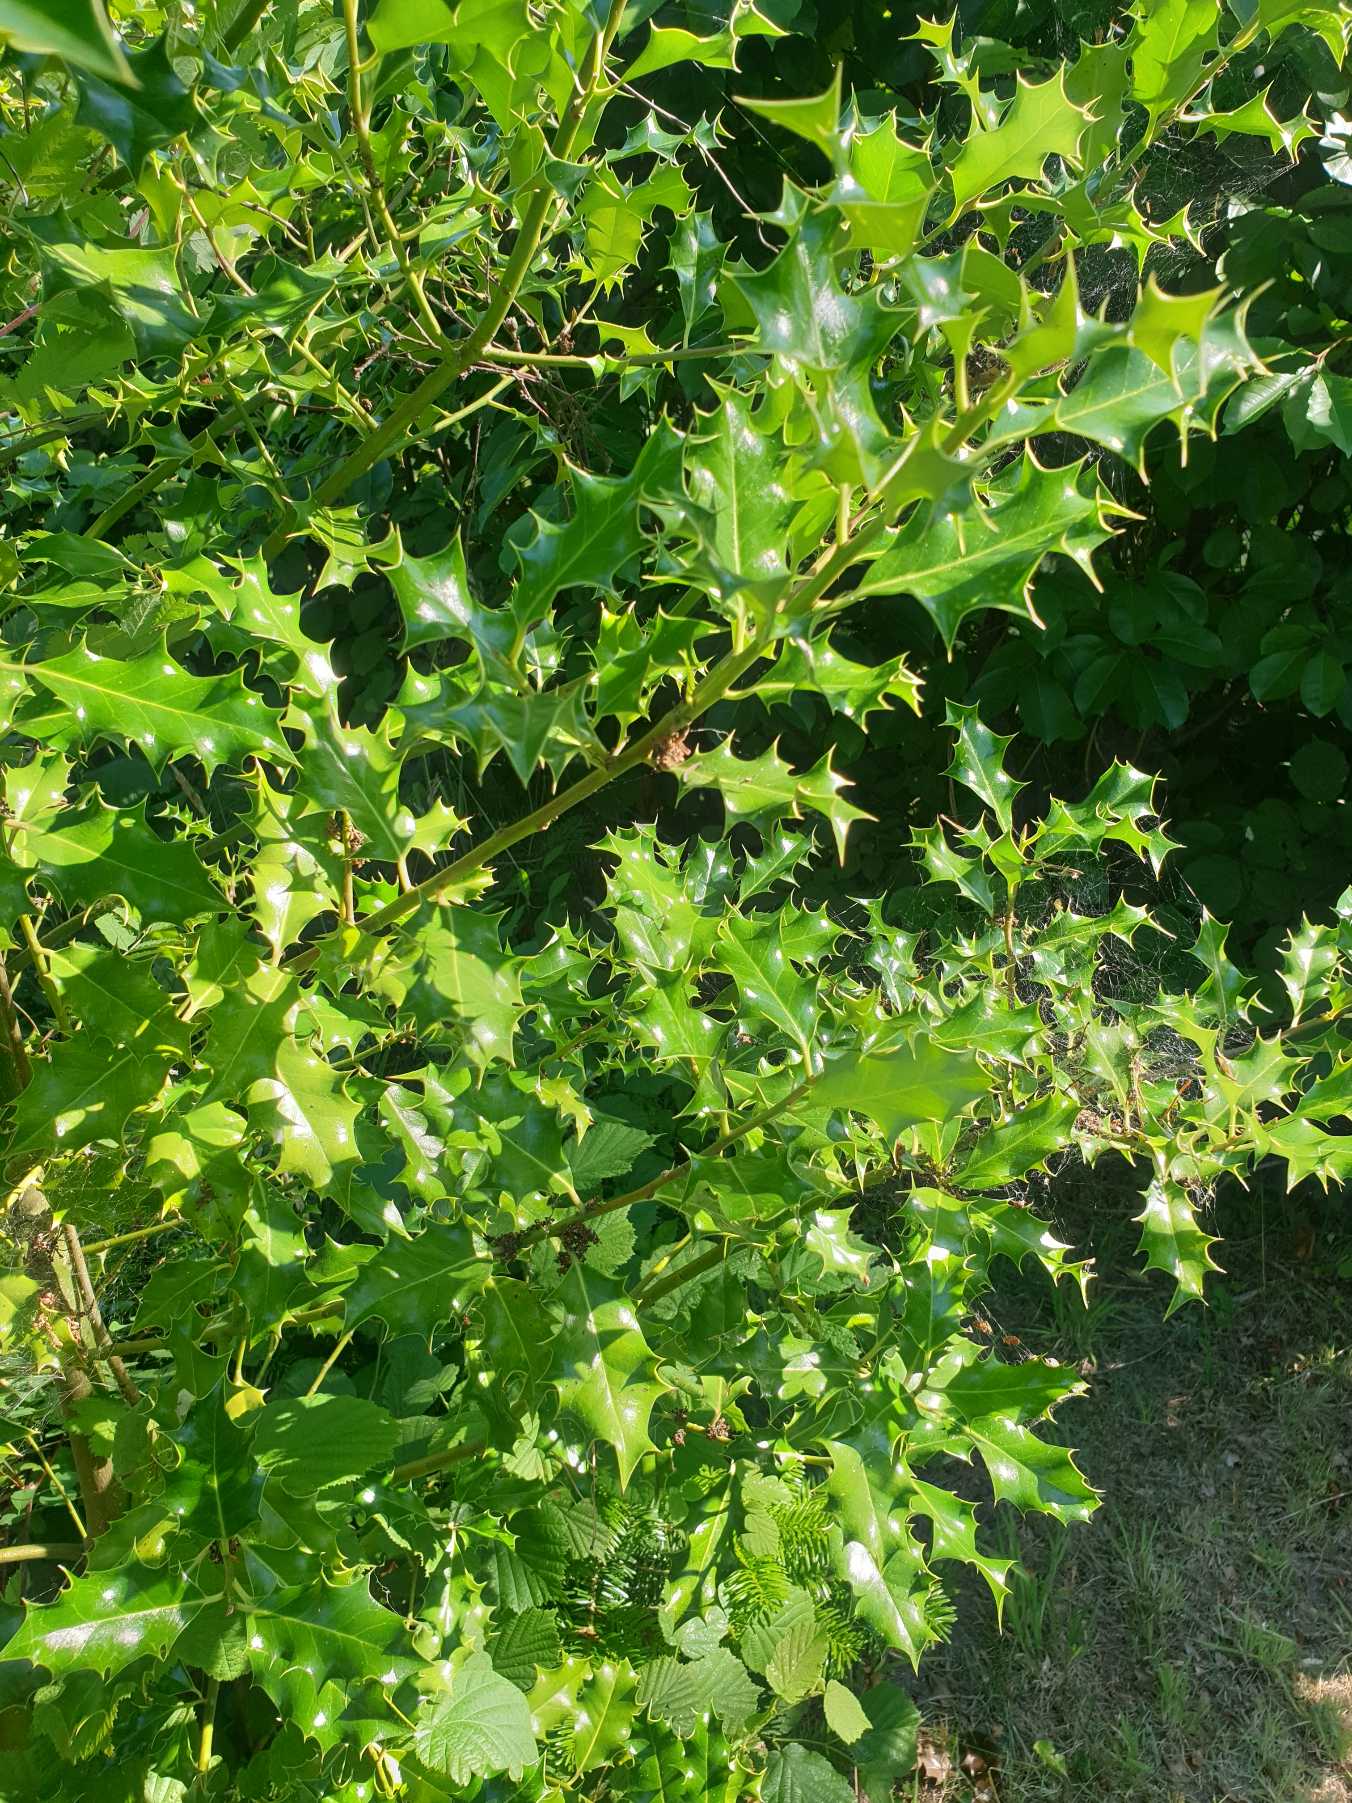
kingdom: Plantae
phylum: Tracheophyta
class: Magnoliopsida
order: Aquifoliales
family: Aquifoliaceae
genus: Ilex
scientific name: Ilex aquifolium
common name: Kristtorn
